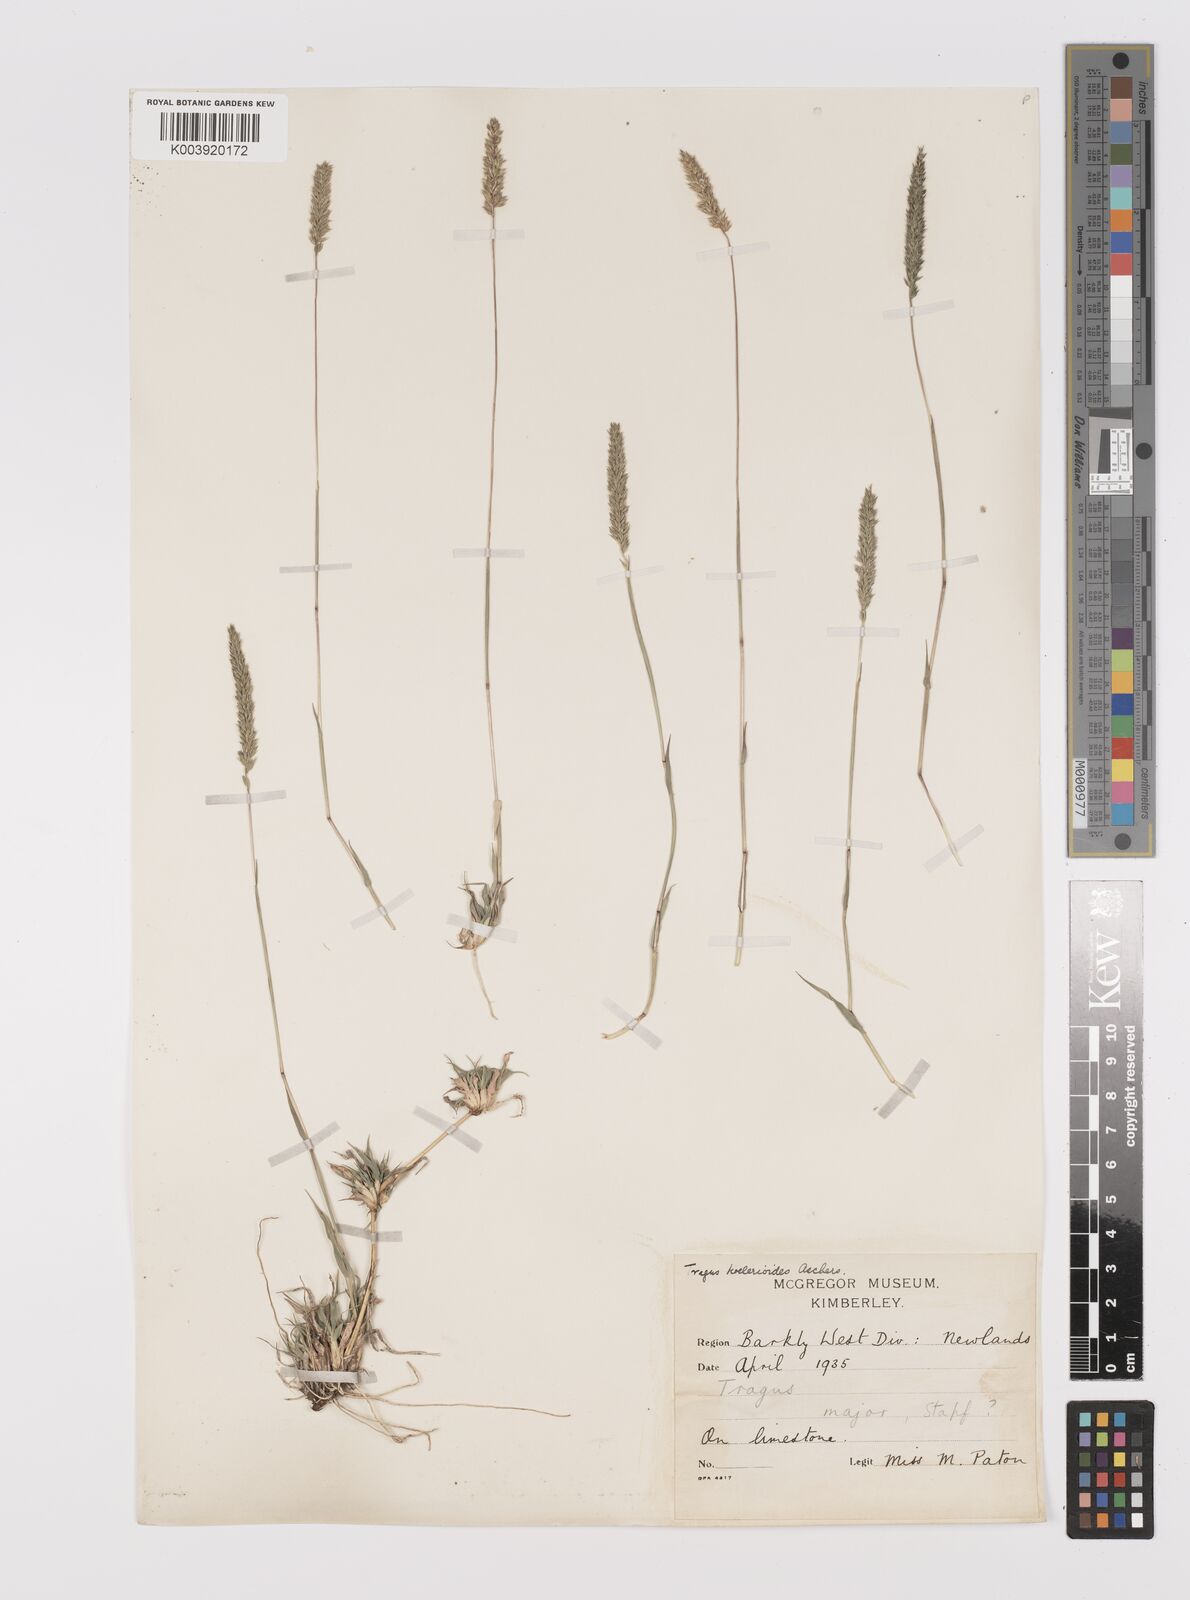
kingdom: Plantae
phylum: Tracheophyta
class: Liliopsida
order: Poales
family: Poaceae
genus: Tragus
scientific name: Tragus koelerioides
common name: Creeping carrot-seed grass
